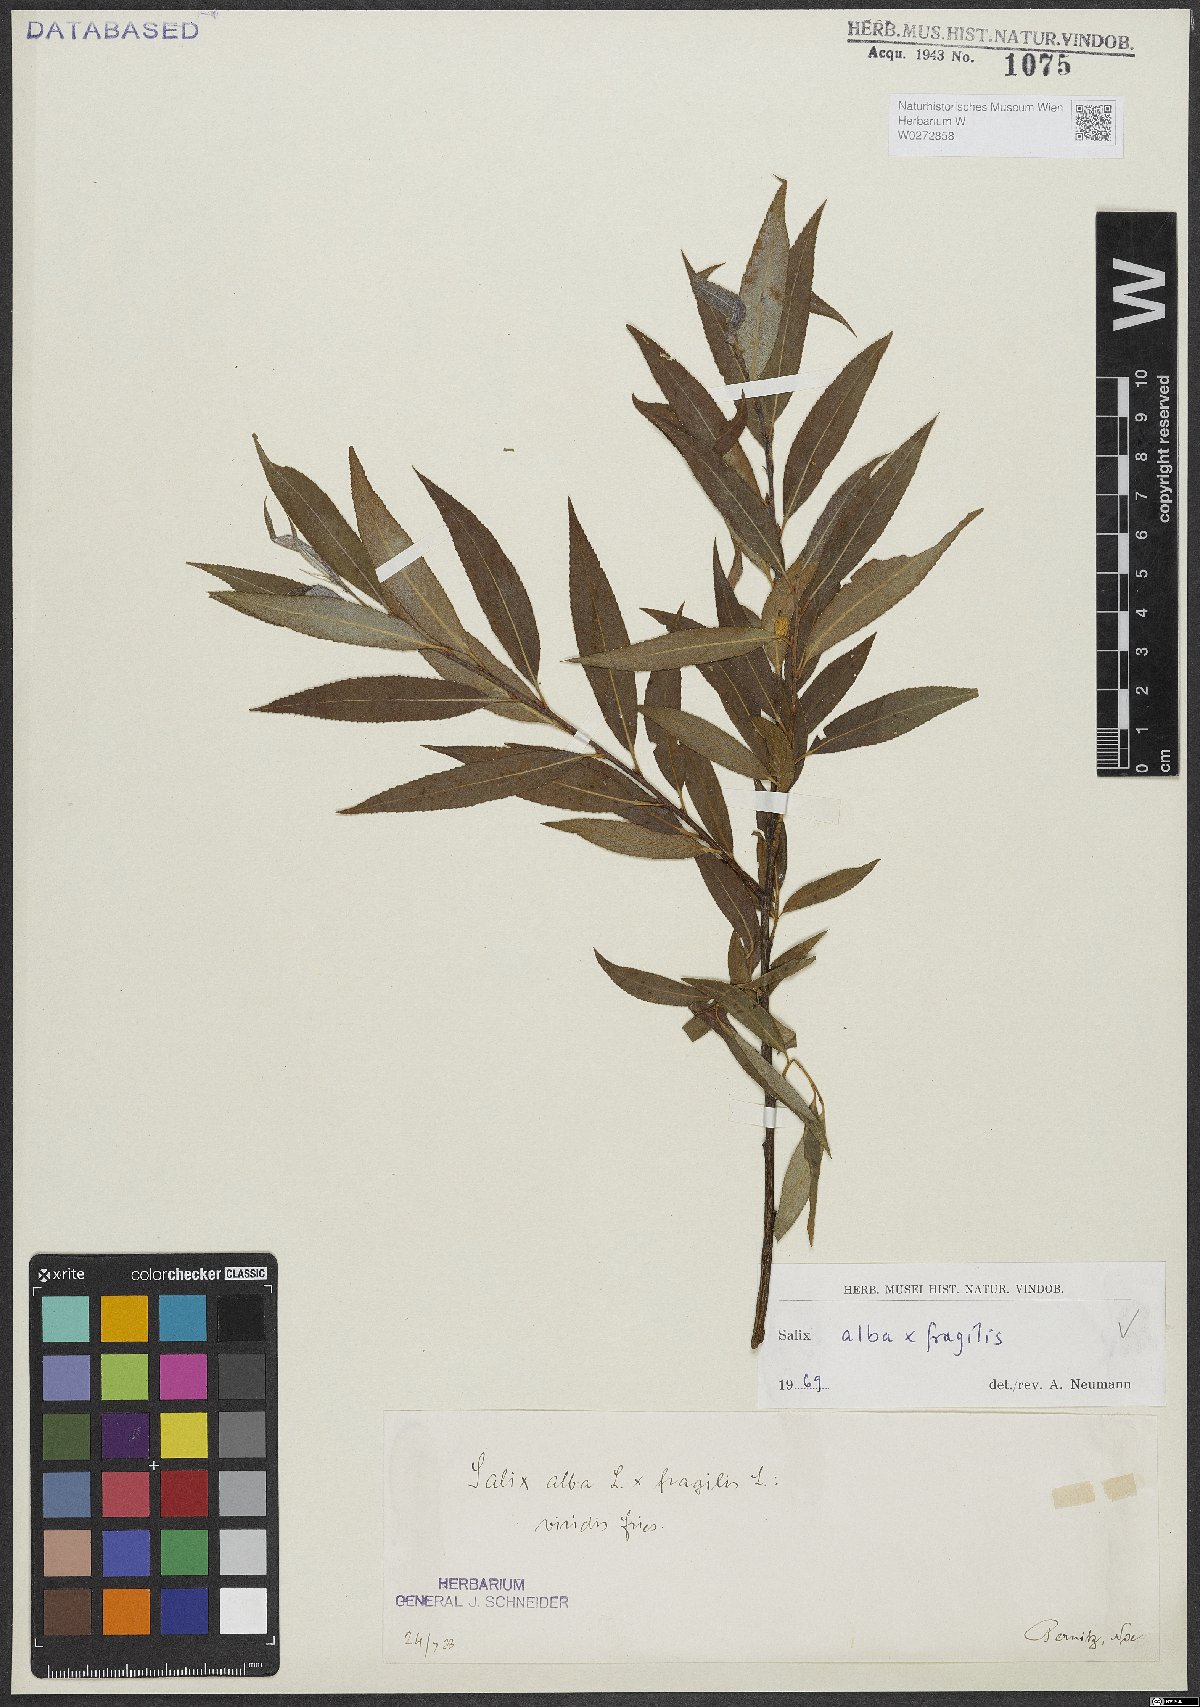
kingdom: Plantae
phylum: Tracheophyta
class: Magnoliopsida
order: Malpighiales
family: Salicaceae
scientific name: Salicaceae
